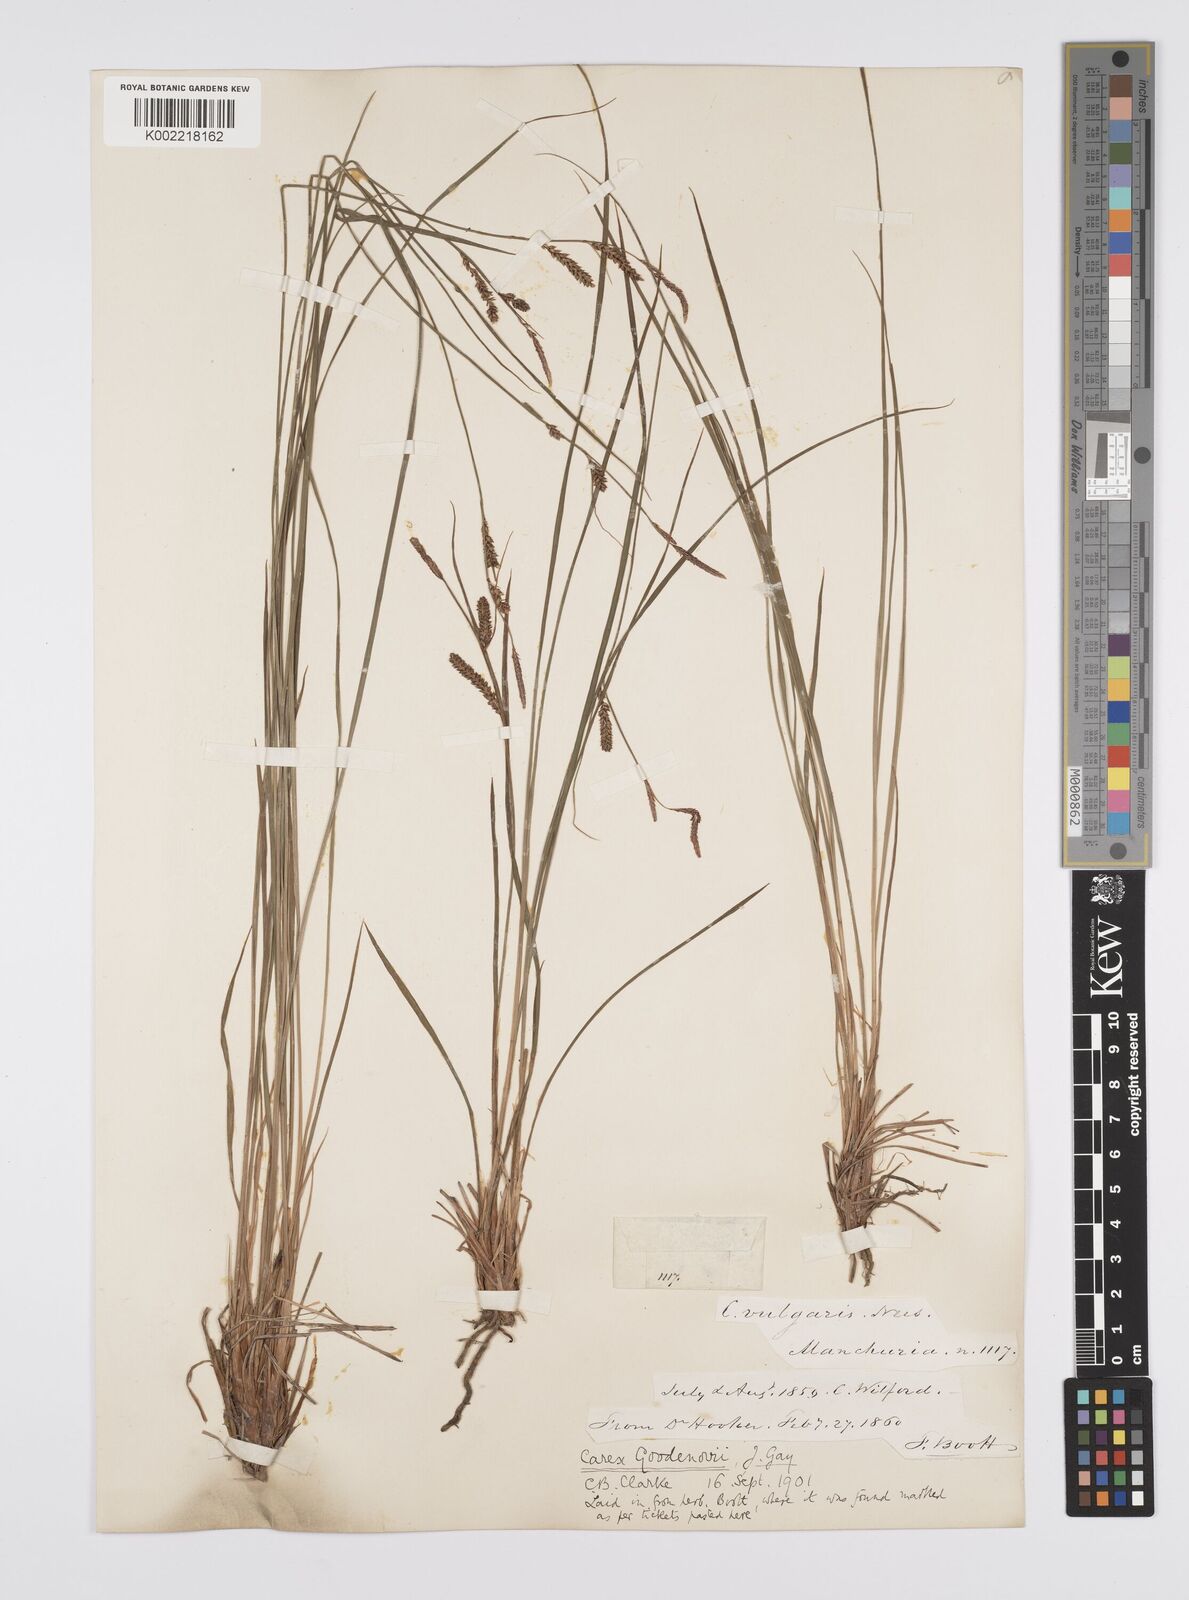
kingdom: Plantae
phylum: Tracheophyta
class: Liliopsida
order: Poales
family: Cyperaceae
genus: Carex
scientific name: Carex nigra
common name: Common sedge
